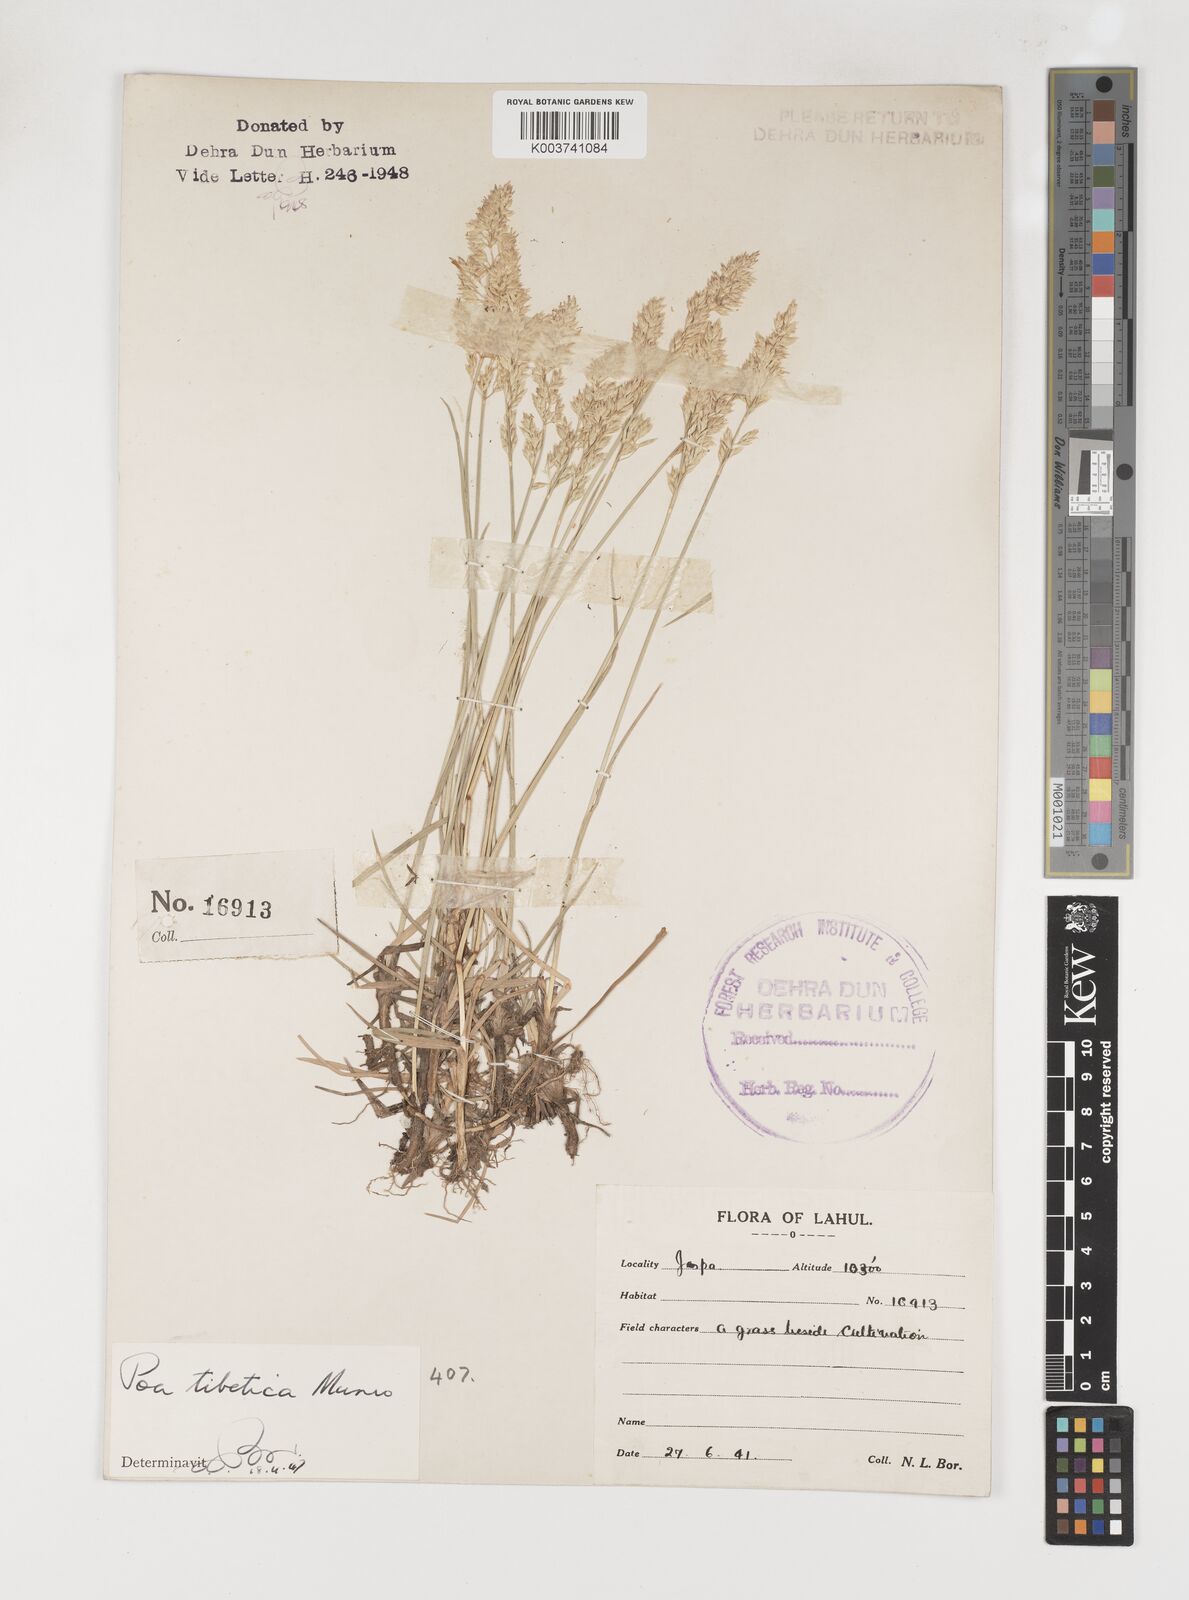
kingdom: Plantae
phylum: Tracheophyta
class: Liliopsida
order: Poales
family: Poaceae
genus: Arctopoa
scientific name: Arctopoa tibetica
